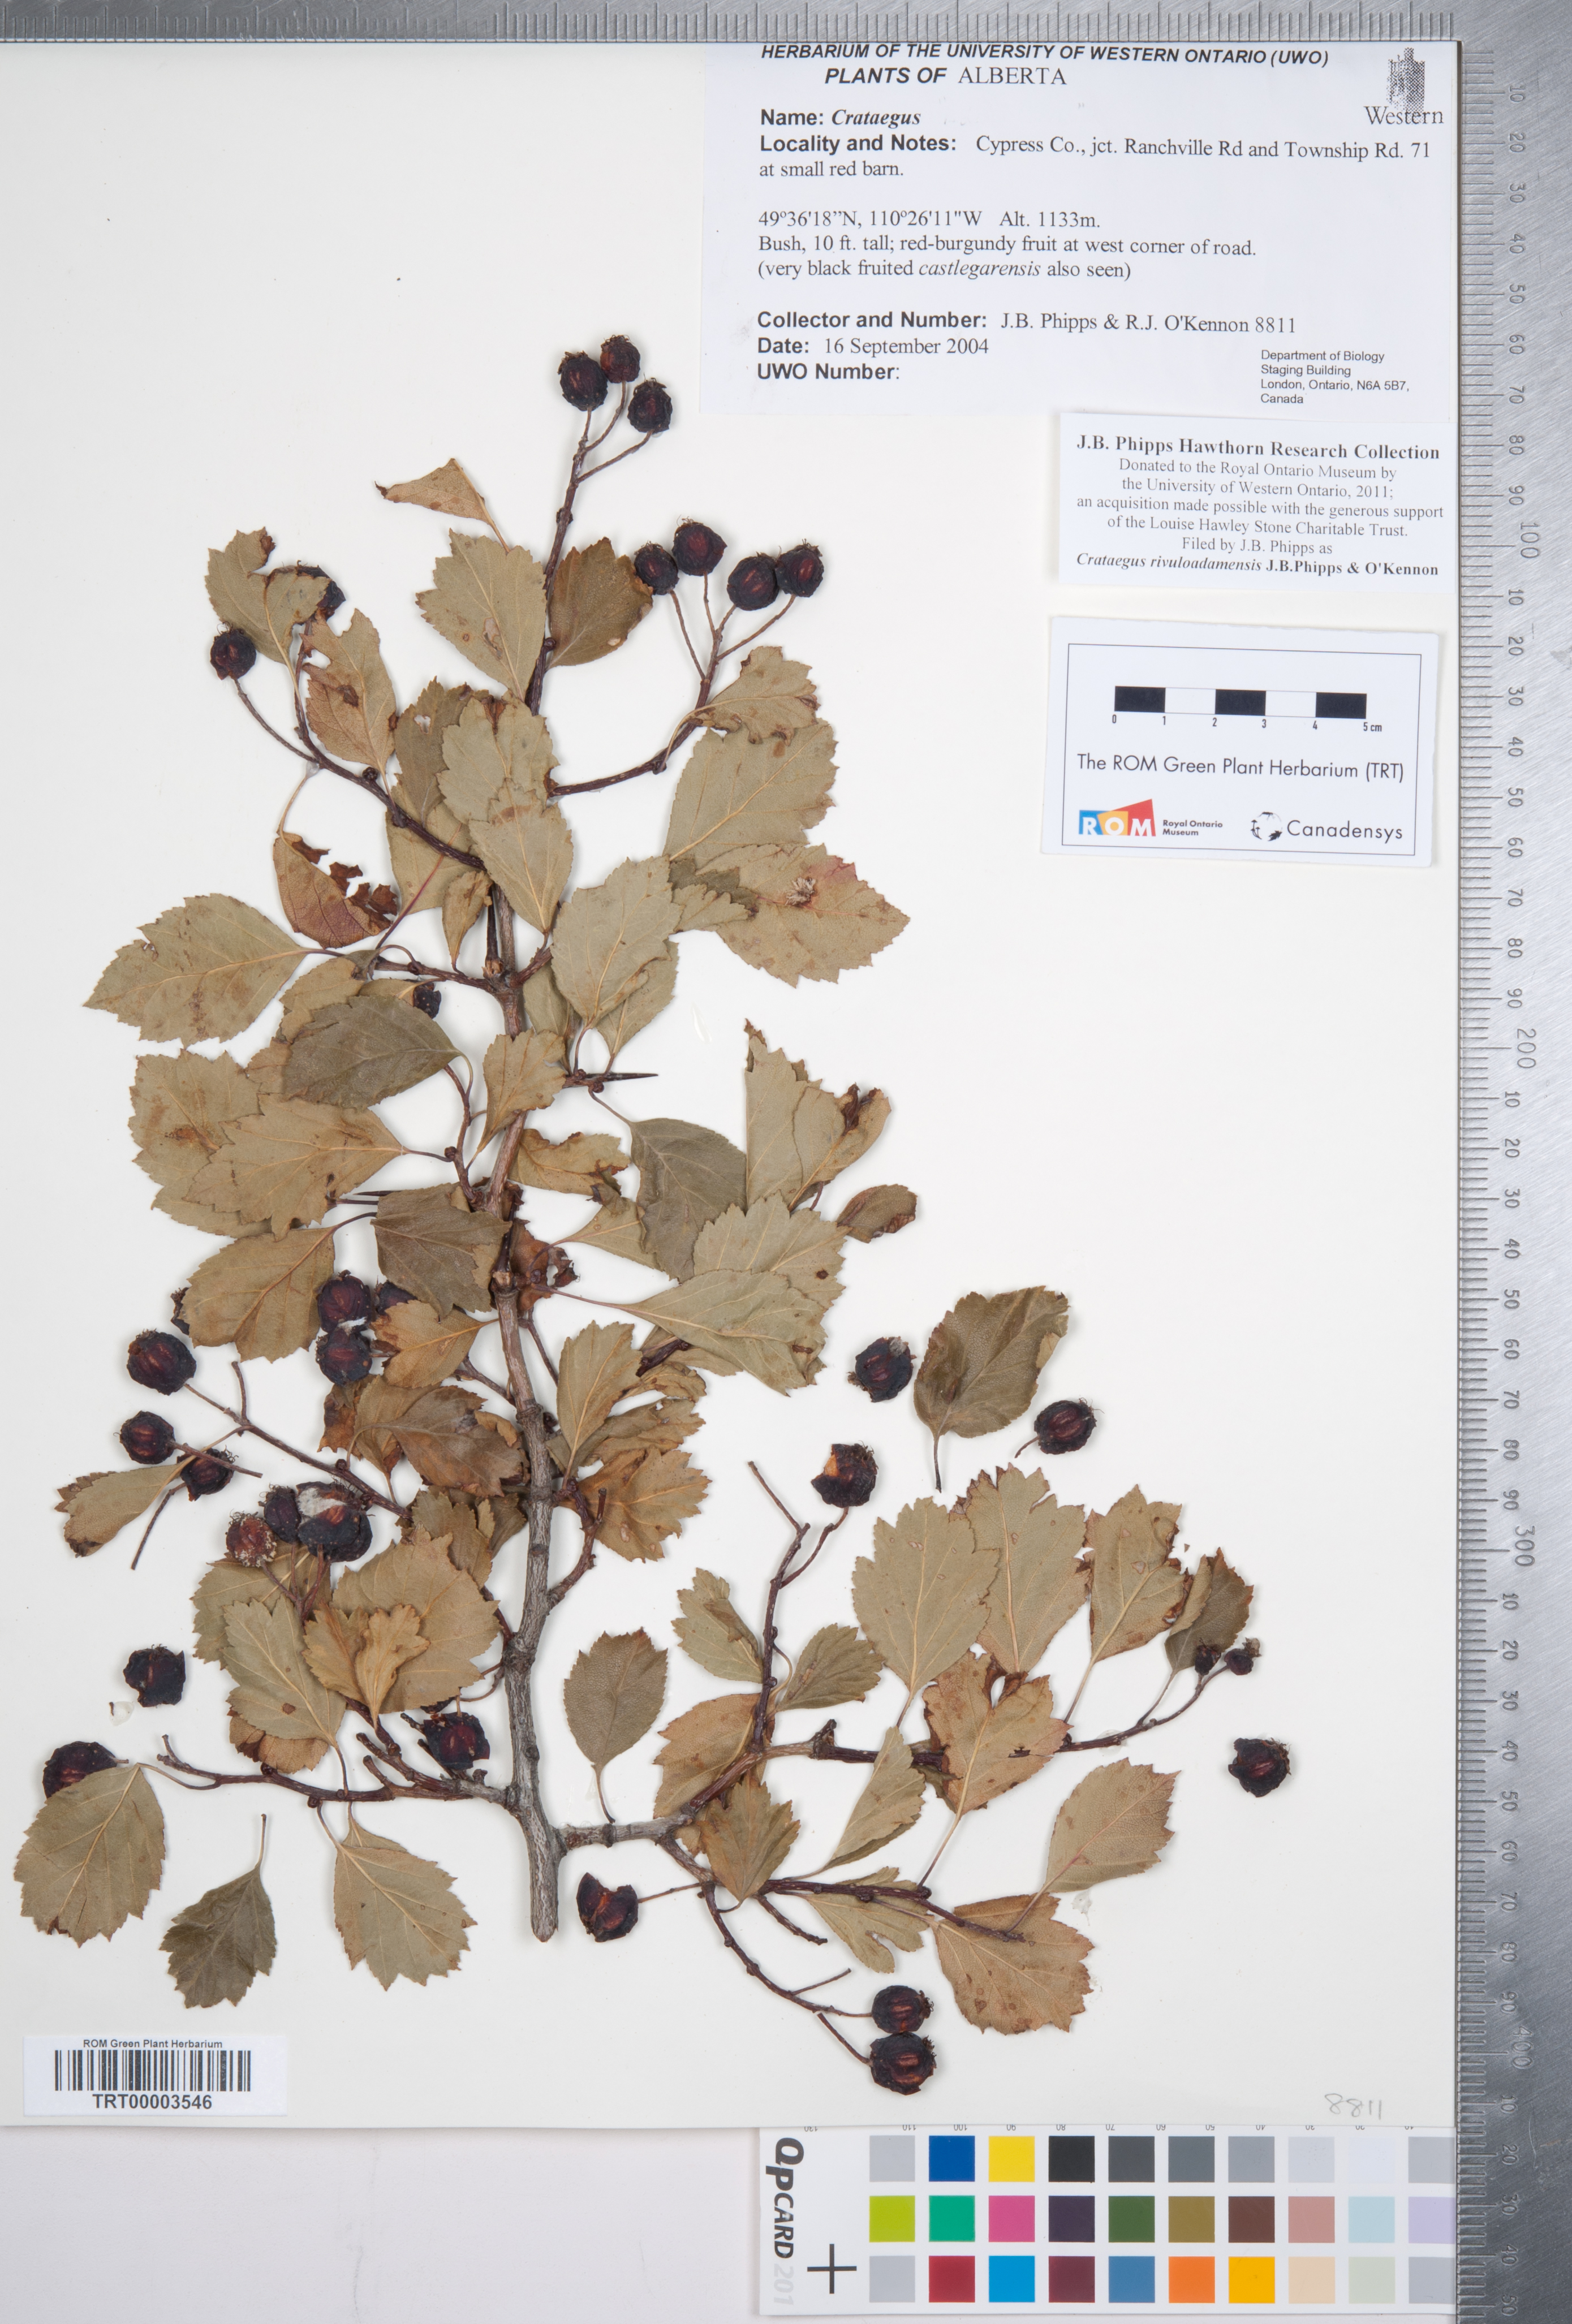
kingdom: Plantae
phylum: Tracheophyta
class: Magnoliopsida
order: Rosales
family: Rosaceae
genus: Crataegus
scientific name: Crataegus rivuloadamensis
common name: Adams creek hawthorn
